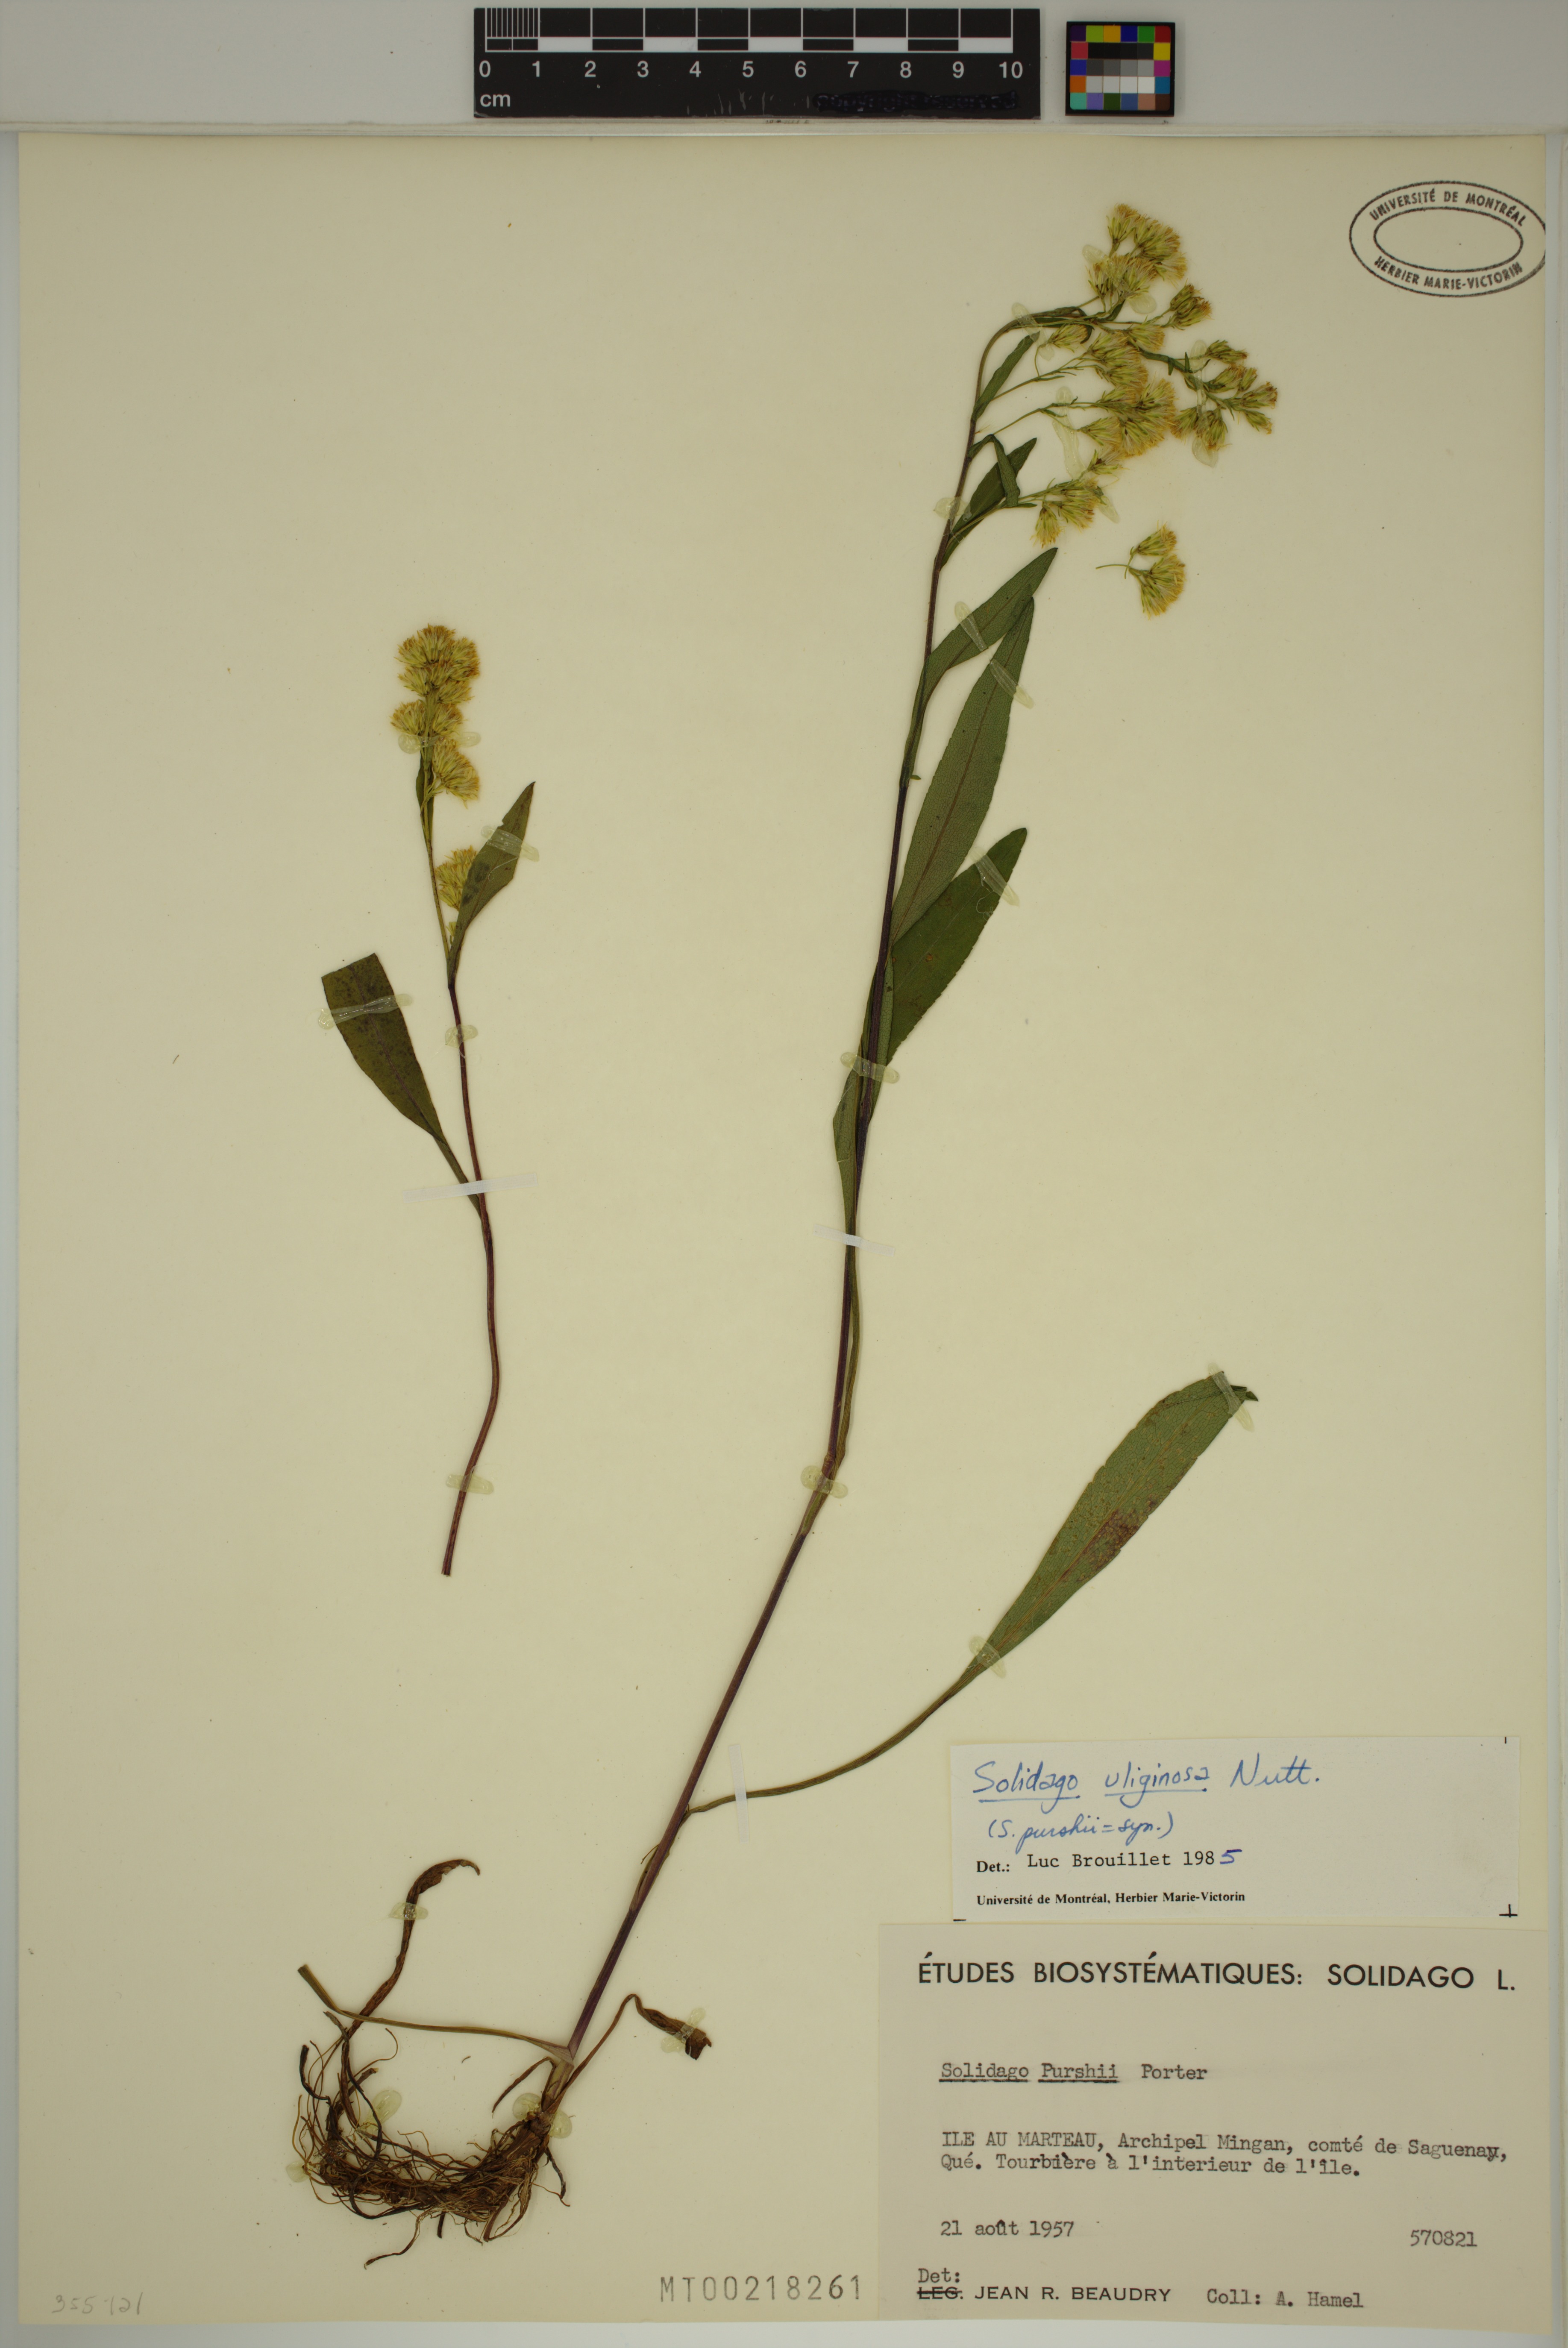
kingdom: Plantae
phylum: Tracheophyta
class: Magnoliopsida
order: Asterales
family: Asteraceae
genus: Solidago
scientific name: Solidago uliginosa
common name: Bog goldenrod
